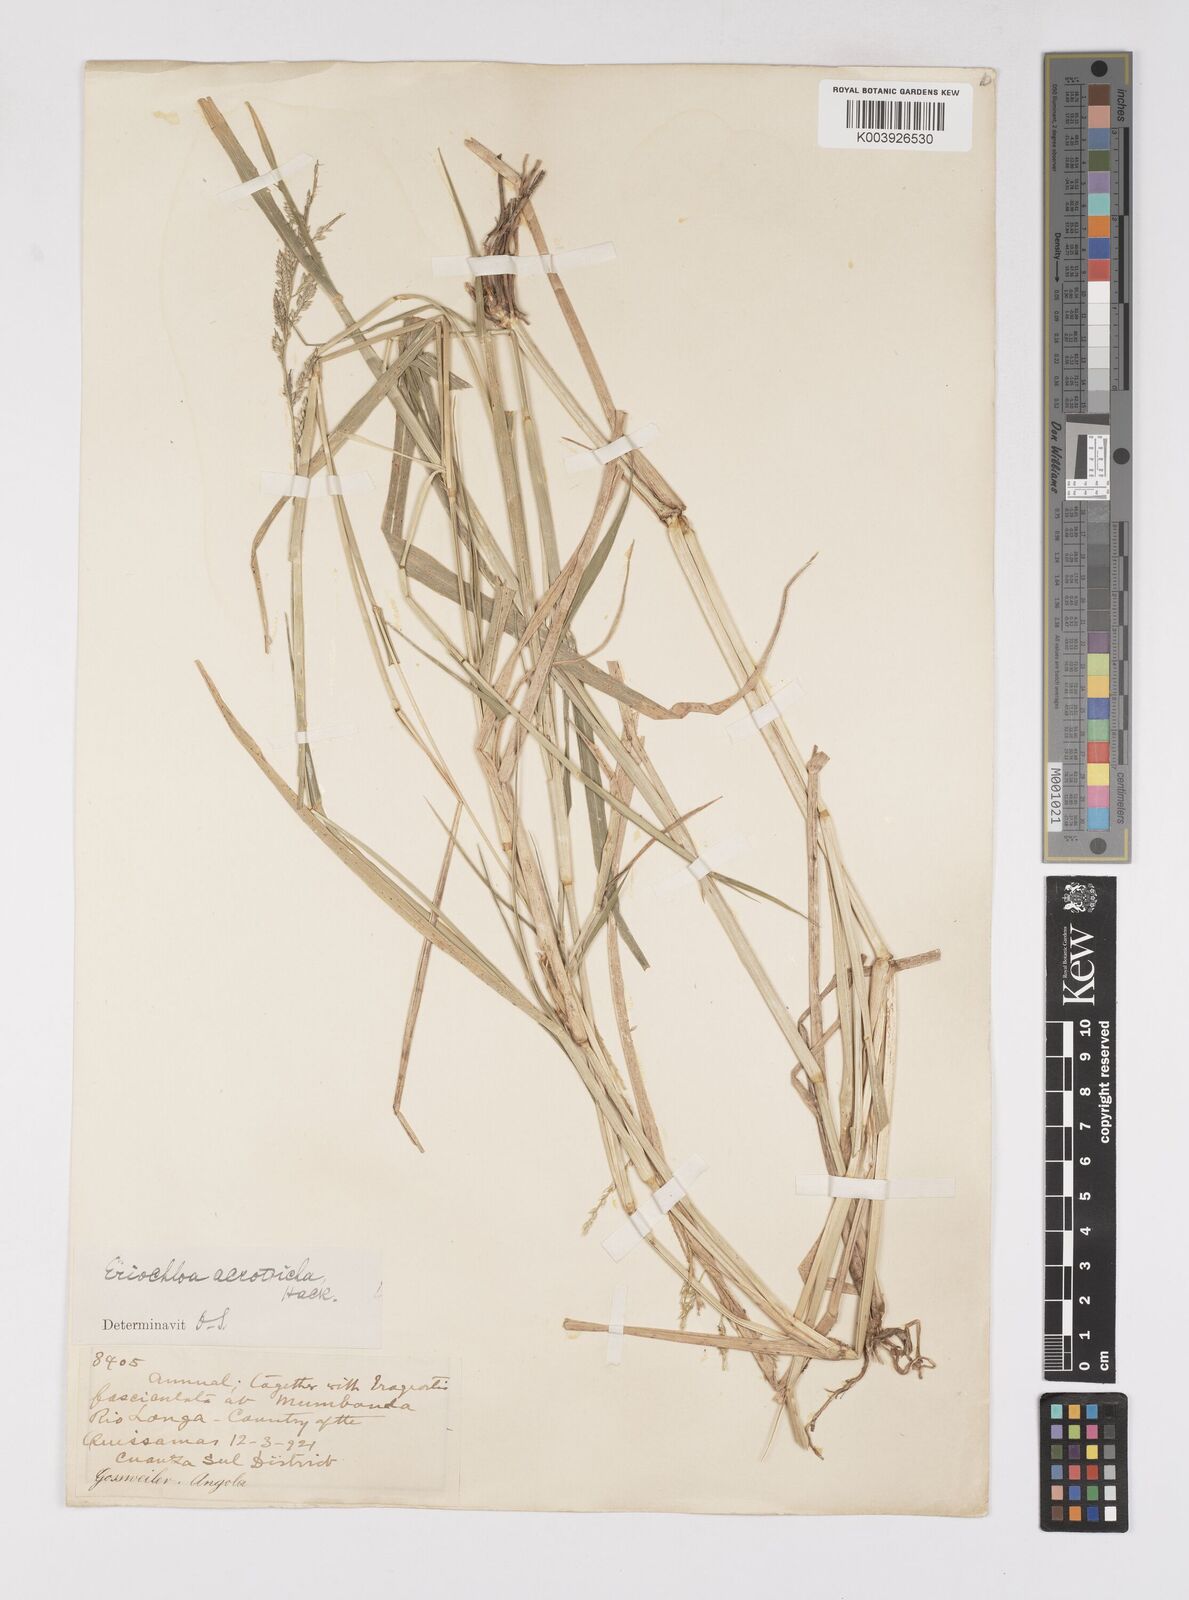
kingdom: Plantae
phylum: Tracheophyta
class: Liliopsida
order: Poales
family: Poaceae
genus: Eriochloa
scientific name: Eriochloa barbatus
